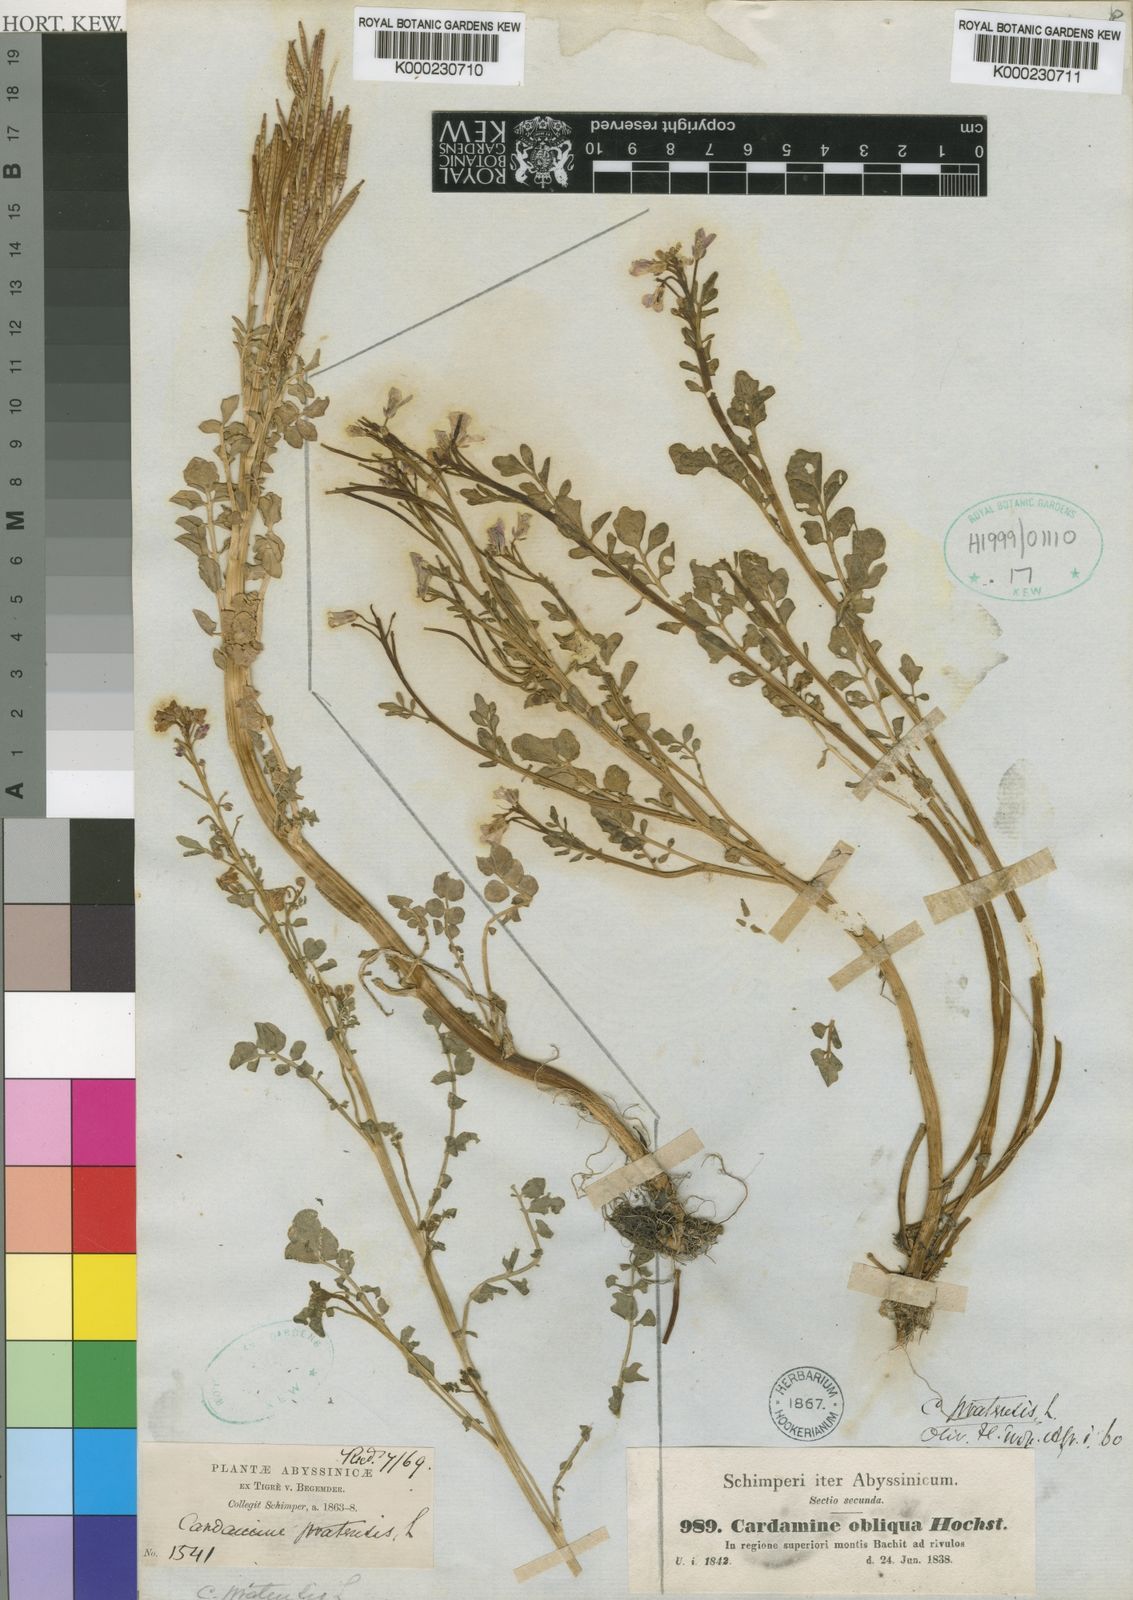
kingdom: Plantae
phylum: Tracheophyta
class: Magnoliopsida
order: Brassicales
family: Brassicaceae
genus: Cardamine
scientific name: Cardamine obliqua
